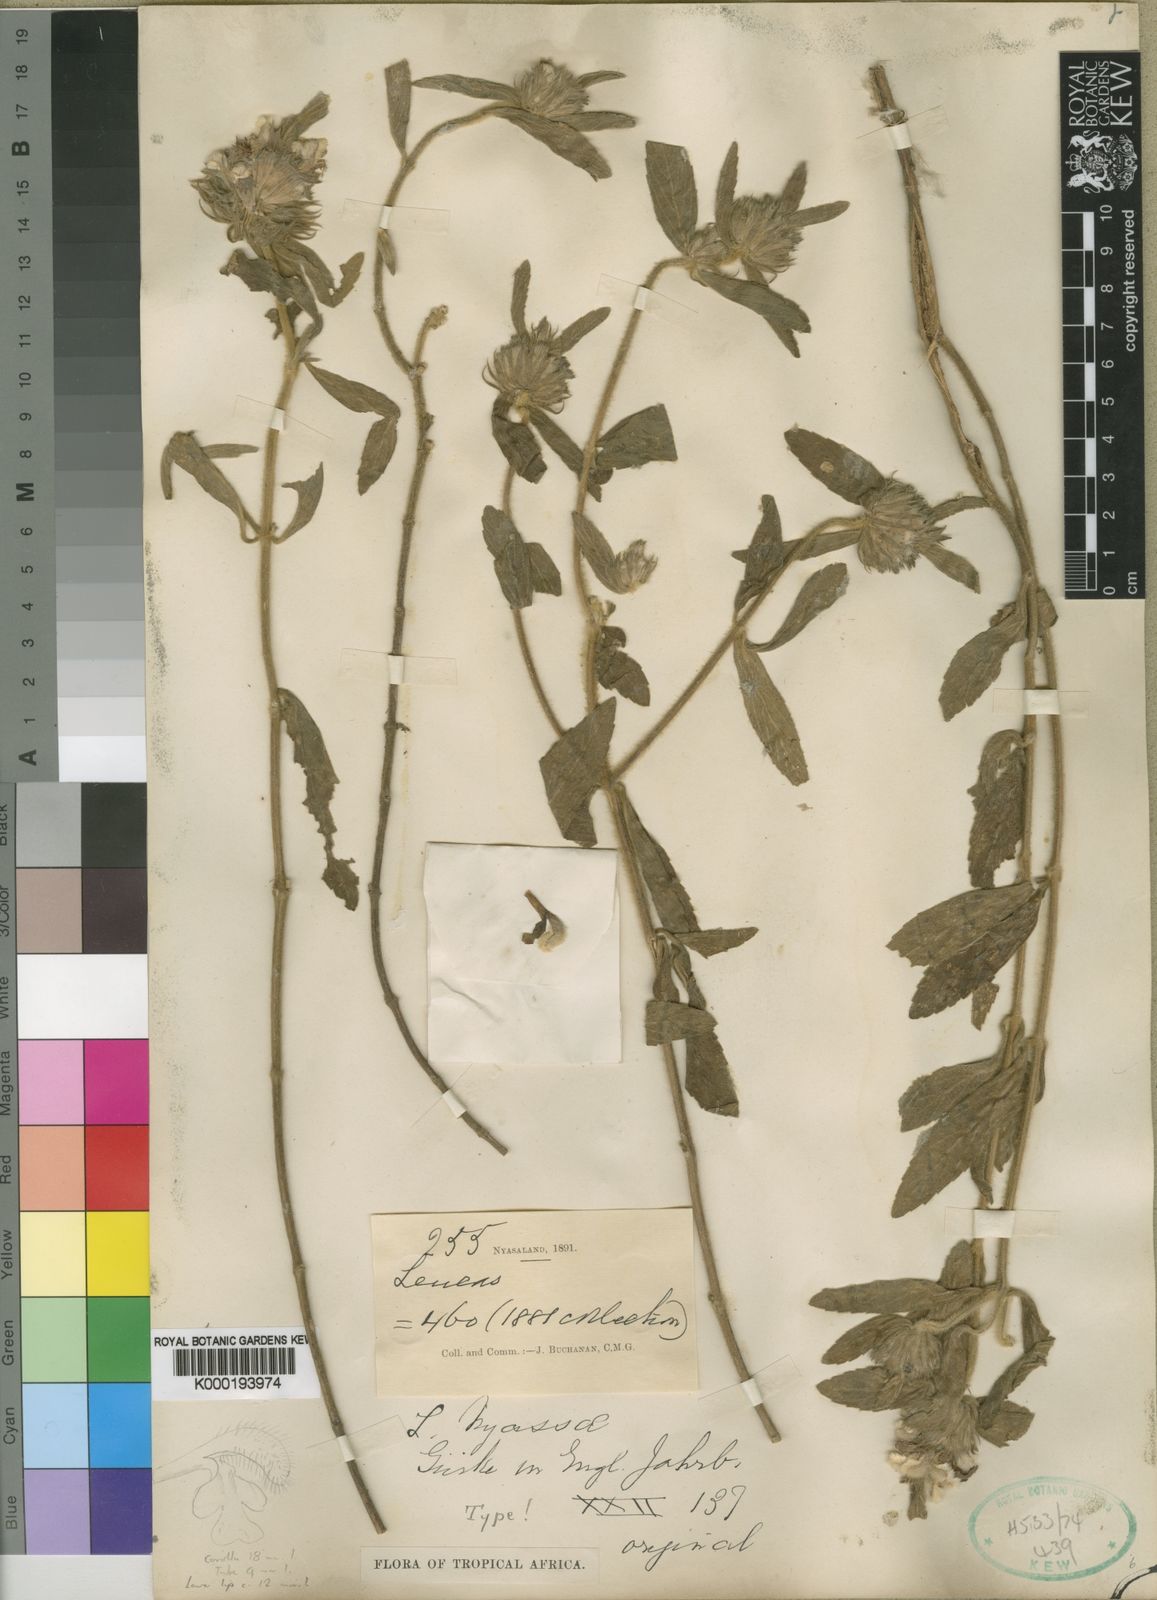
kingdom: Plantae
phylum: Tracheophyta
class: Magnoliopsida
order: Lamiales
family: Lamiaceae
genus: Leucas
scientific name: Leucas
